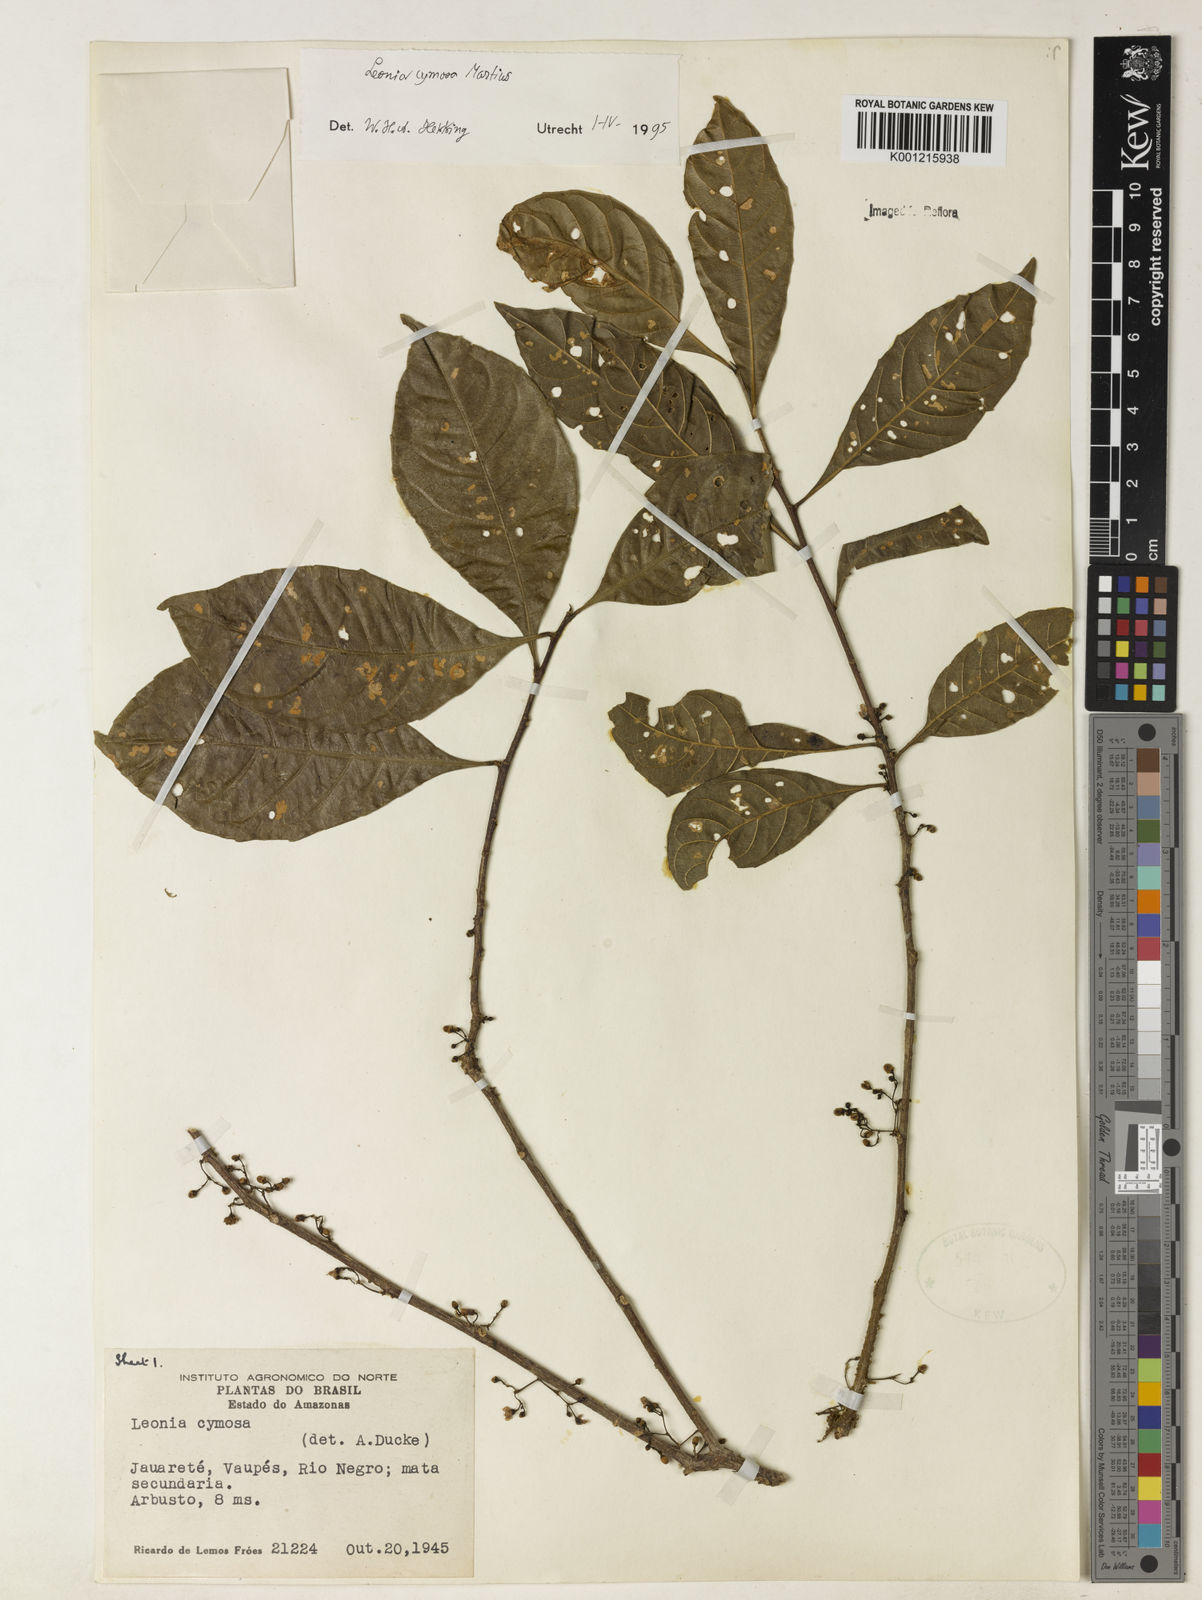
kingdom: Plantae
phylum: Tracheophyta
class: Magnoliopsida
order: Malpighiales
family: Violaceae
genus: Leonia
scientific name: Leonia cymosa
